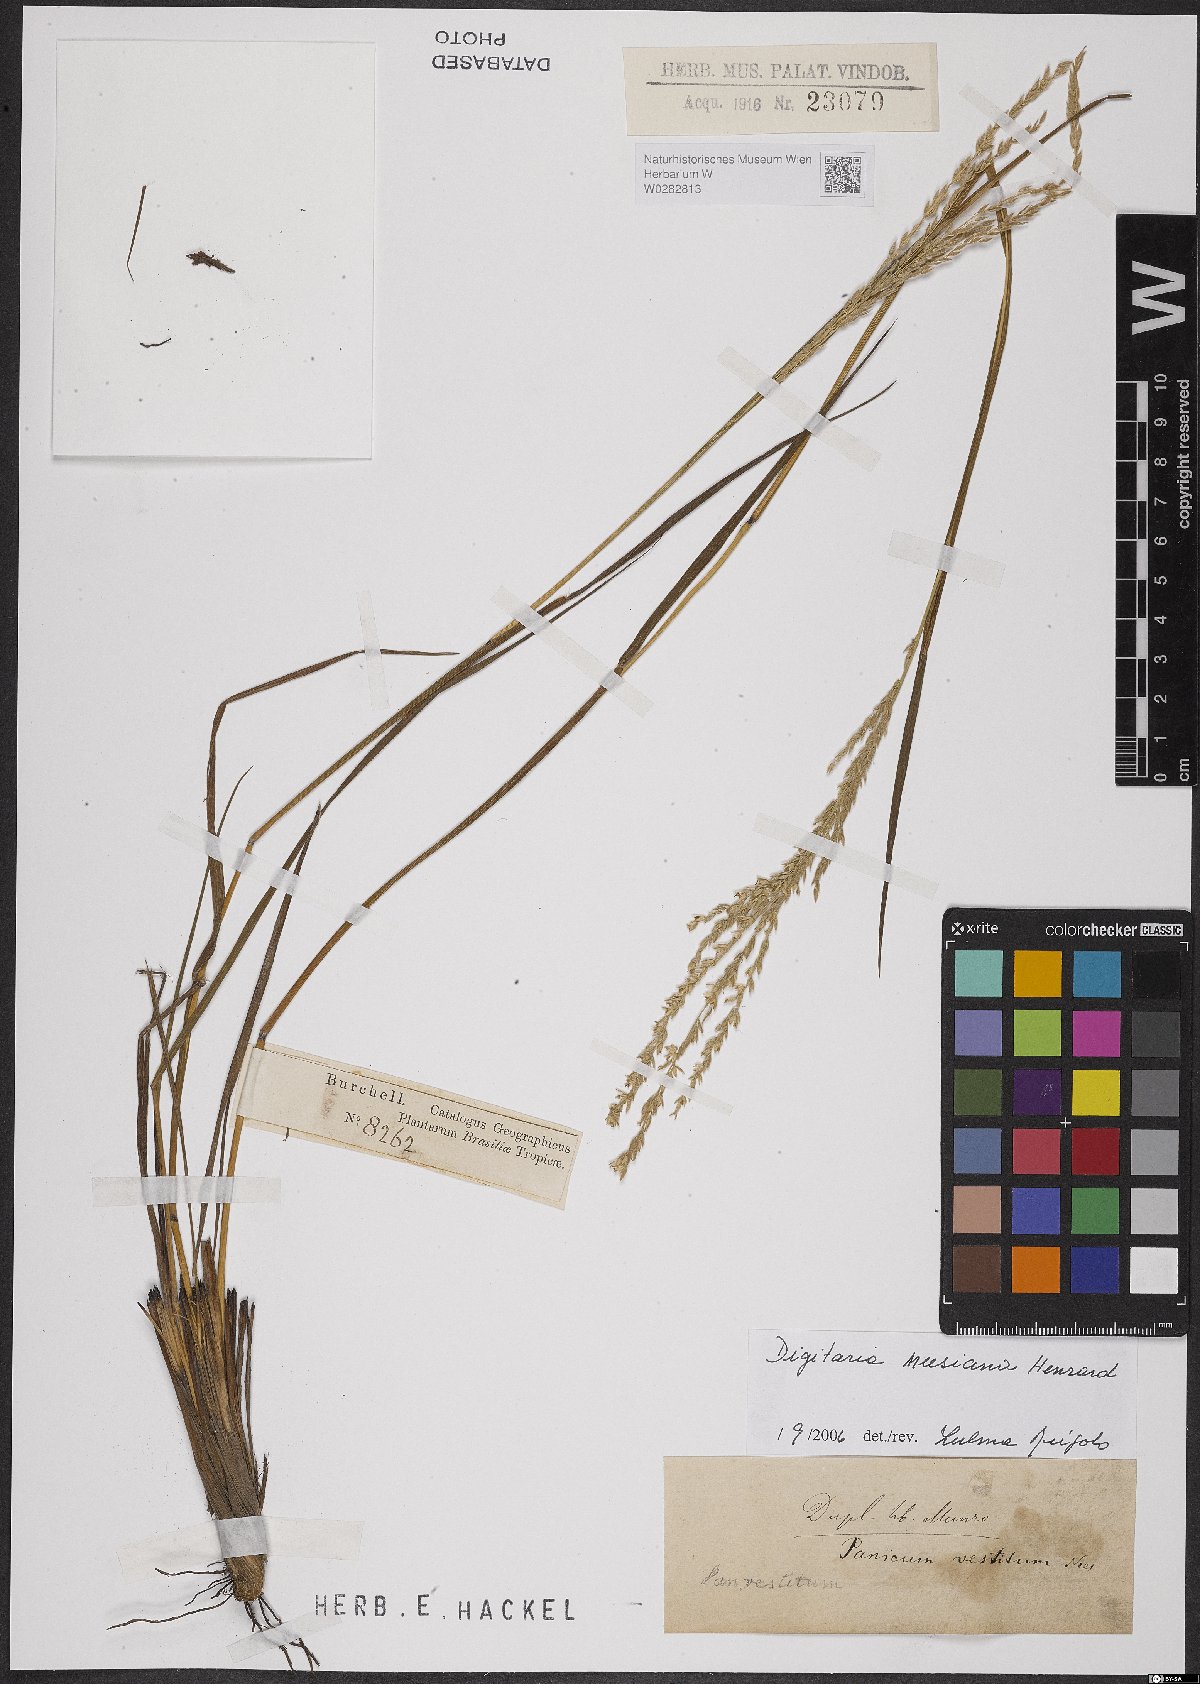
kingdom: Plantae
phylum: Tracheophyta
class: Liliopsida
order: Poales
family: Poaceae
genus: Digitaria
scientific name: Digitaria neesiana
